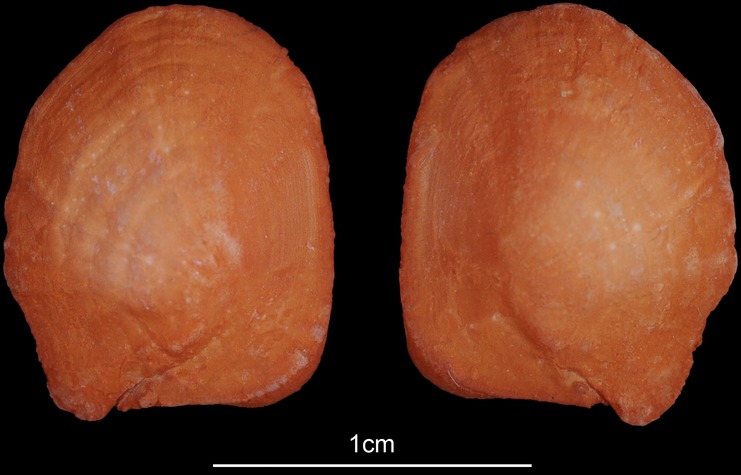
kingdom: Animalia
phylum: Chordata
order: Siluriformes
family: Ariidae
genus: Galeichthys
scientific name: Galeichthys feliceps
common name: White seacatfish
